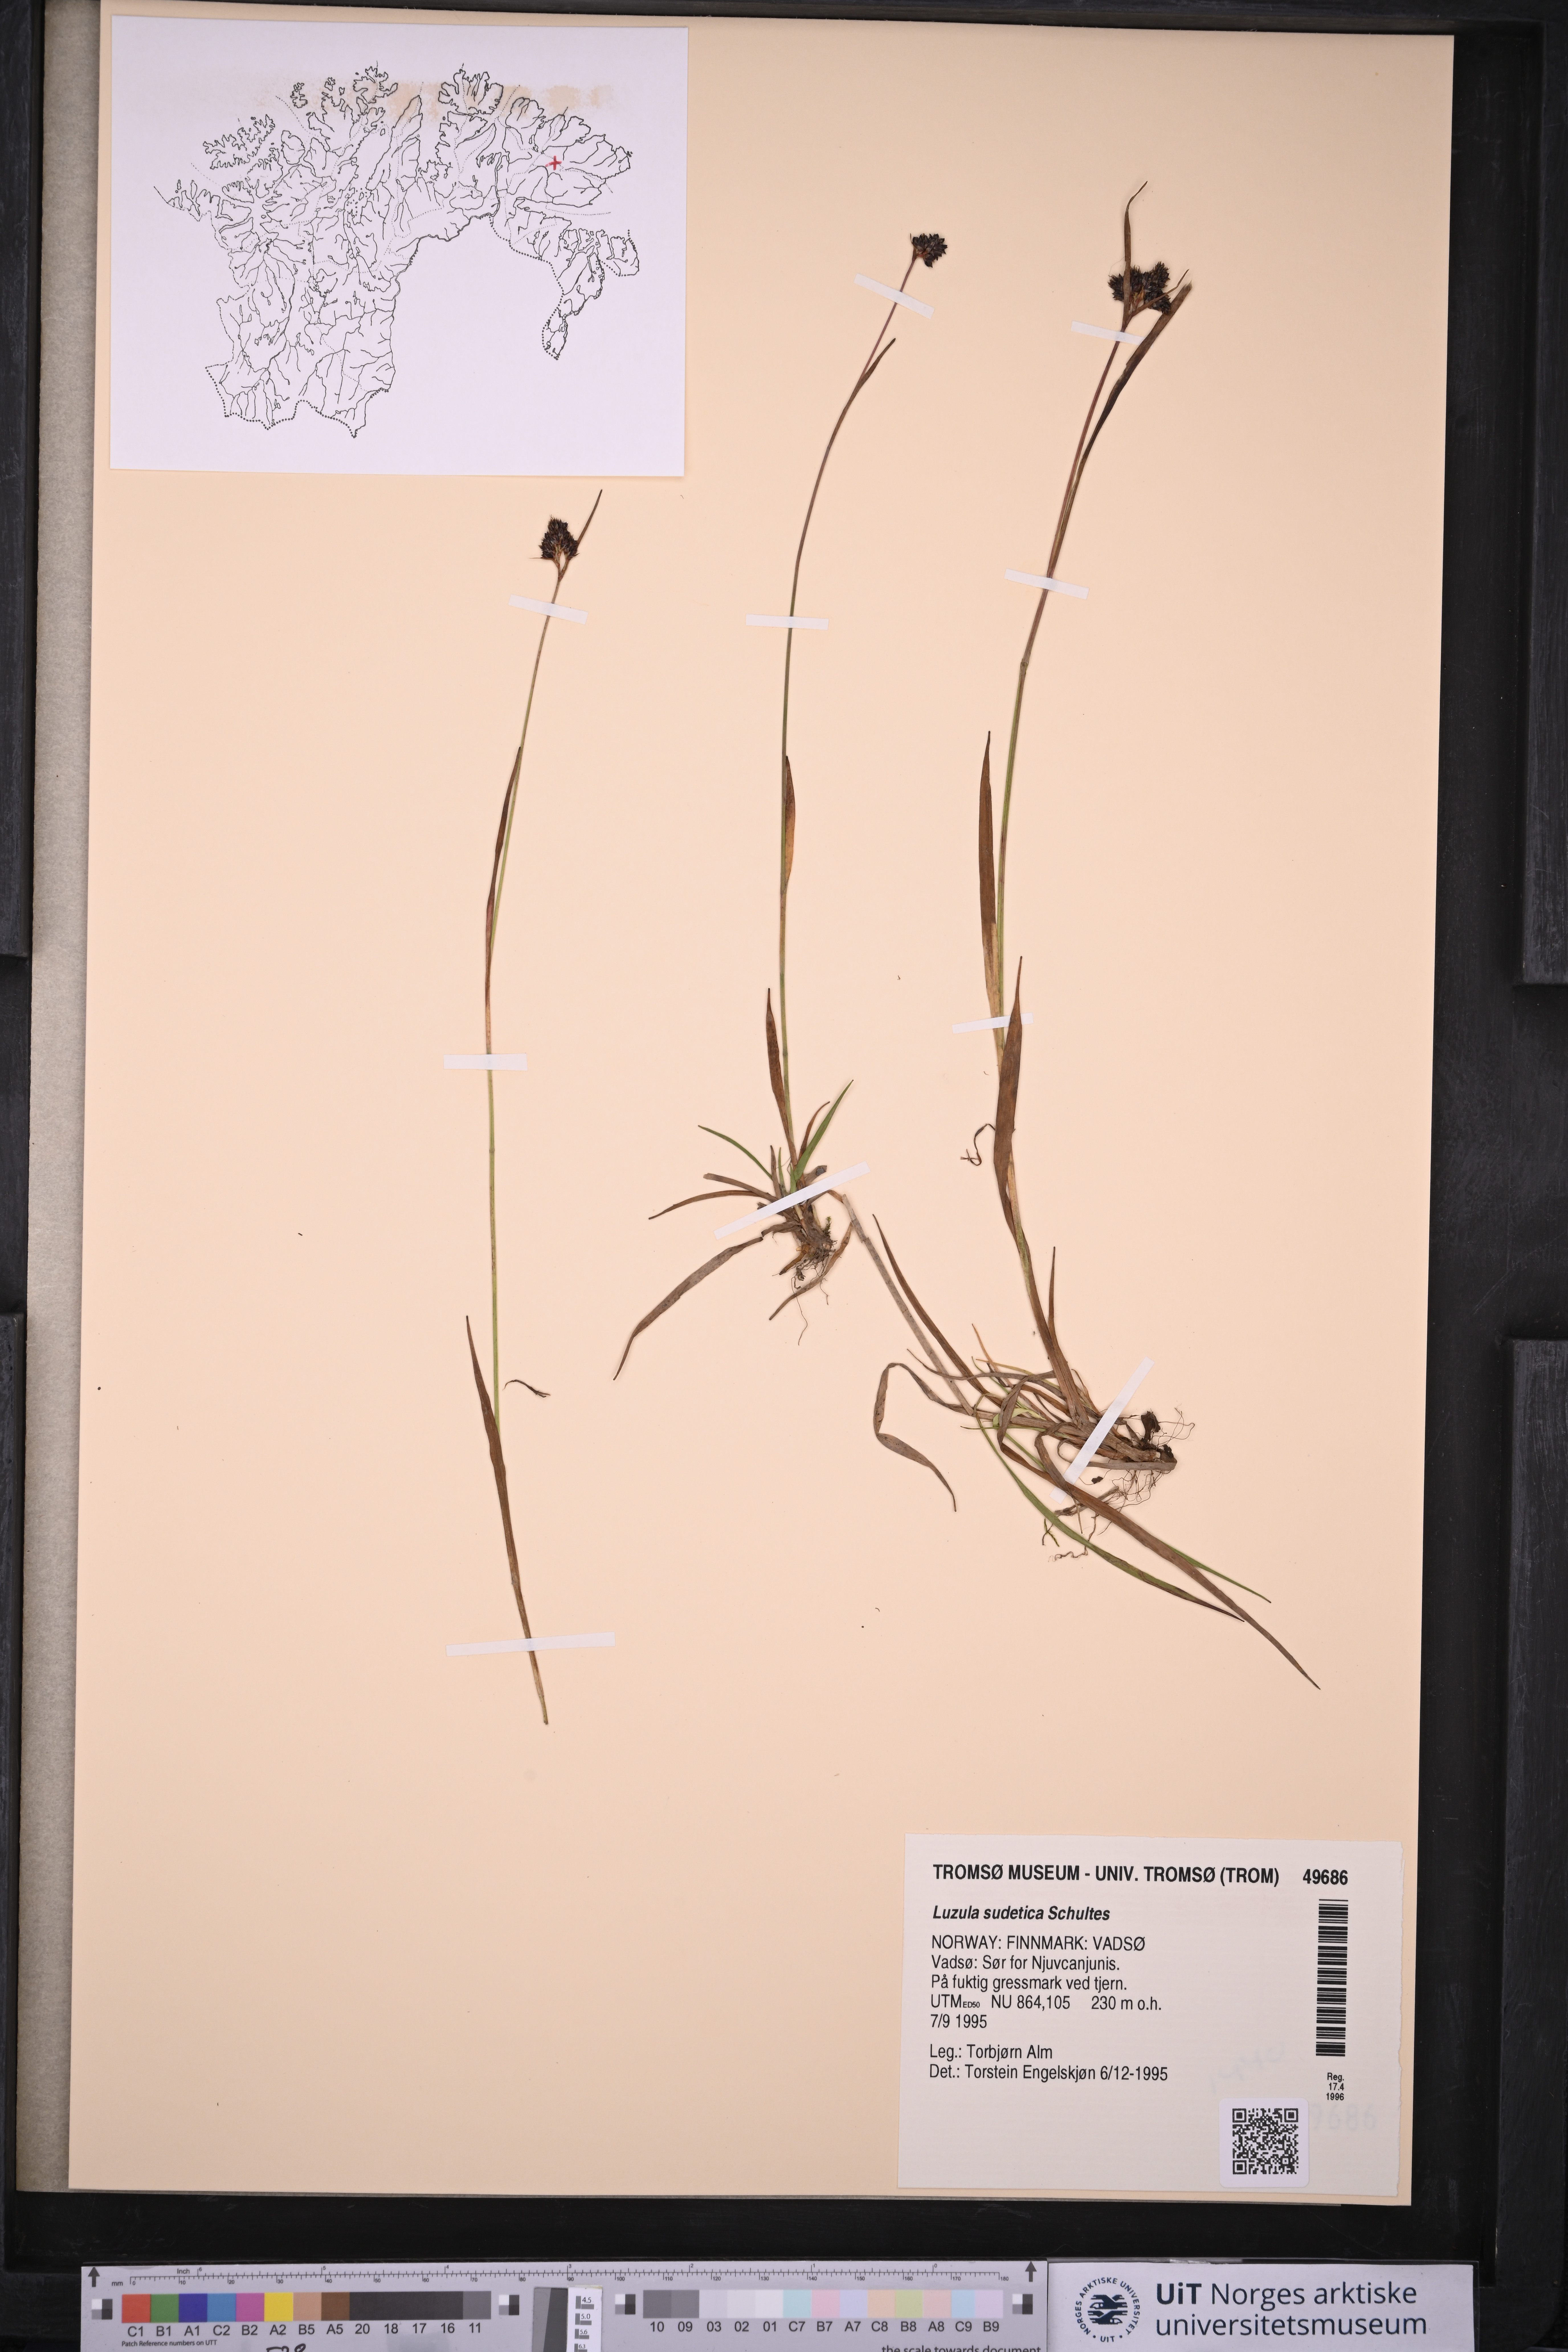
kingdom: Plantae
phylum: Tracheophyta
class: Liliopsida
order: Poales
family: Juncaceae
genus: Luzula
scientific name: Luzula sudetica
